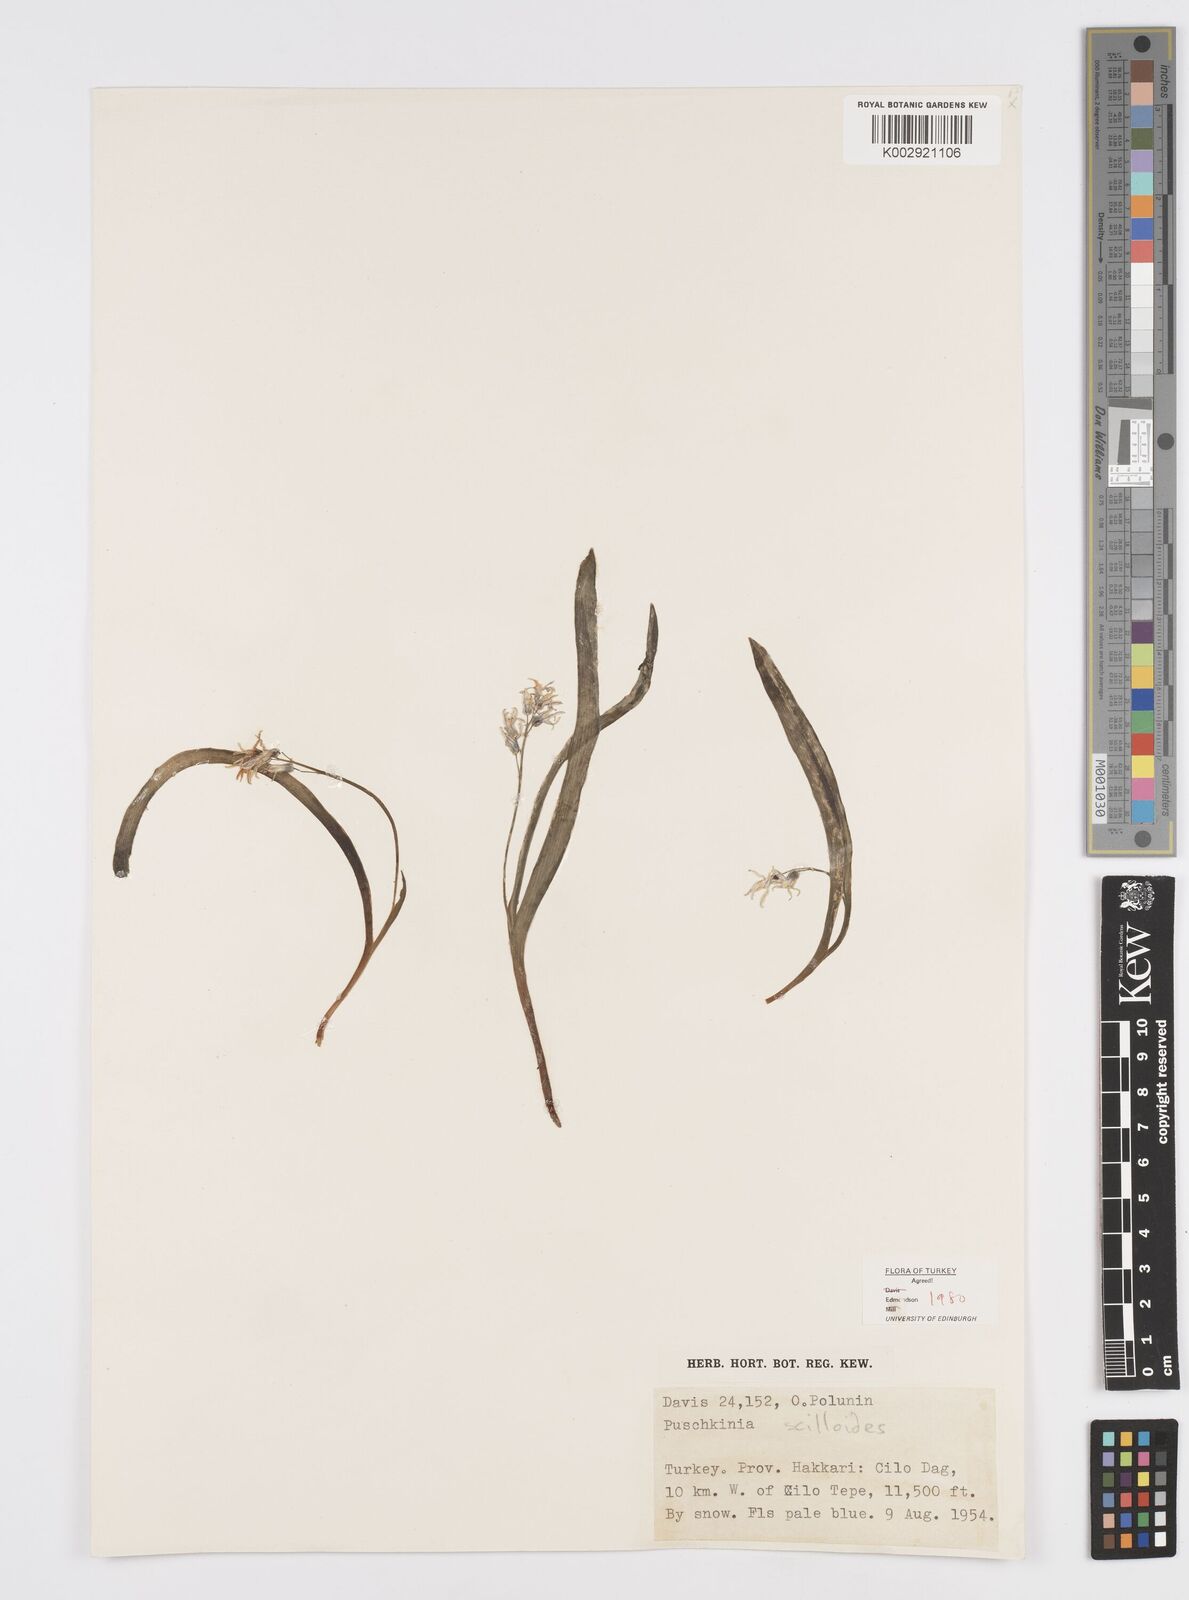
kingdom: Plantae
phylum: Tracheophyta
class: Liliopsida
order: Asparagales
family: Asparagaceae
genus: Puschkinia
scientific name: Puschkinia scilloides
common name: Striped squill
